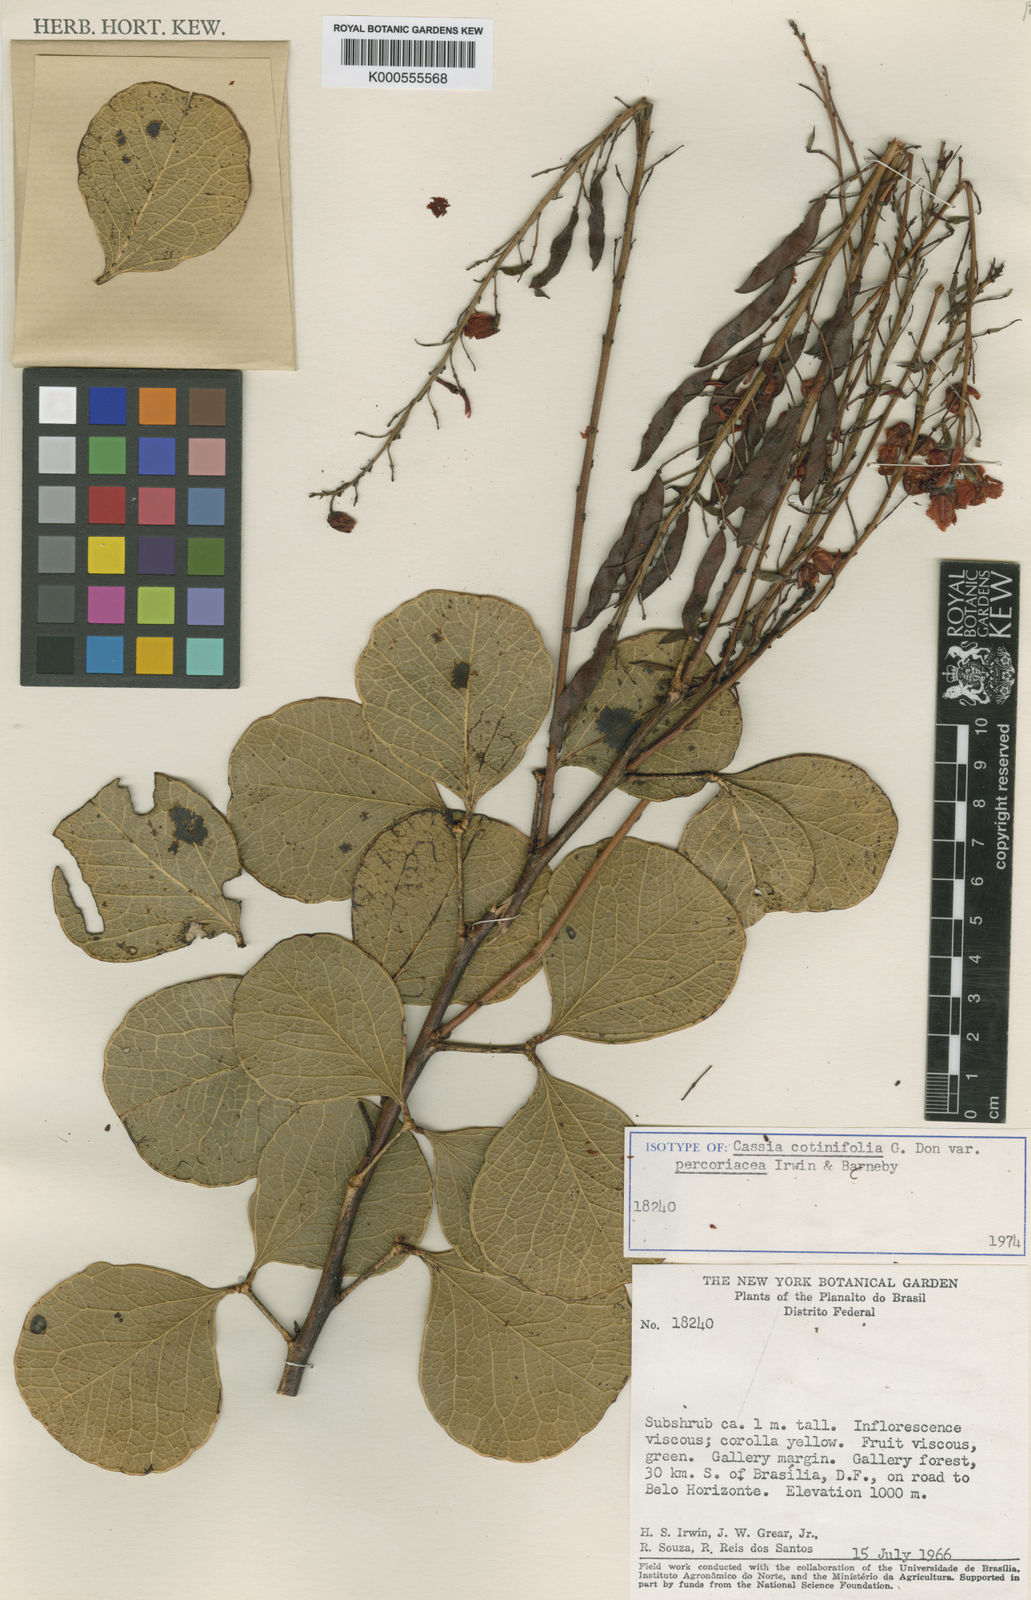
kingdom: Plantae
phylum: Tracheophyta
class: Magnoliopsida
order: Fabales
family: Fabaceae
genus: Chamaecrista
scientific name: Chamaecrista
